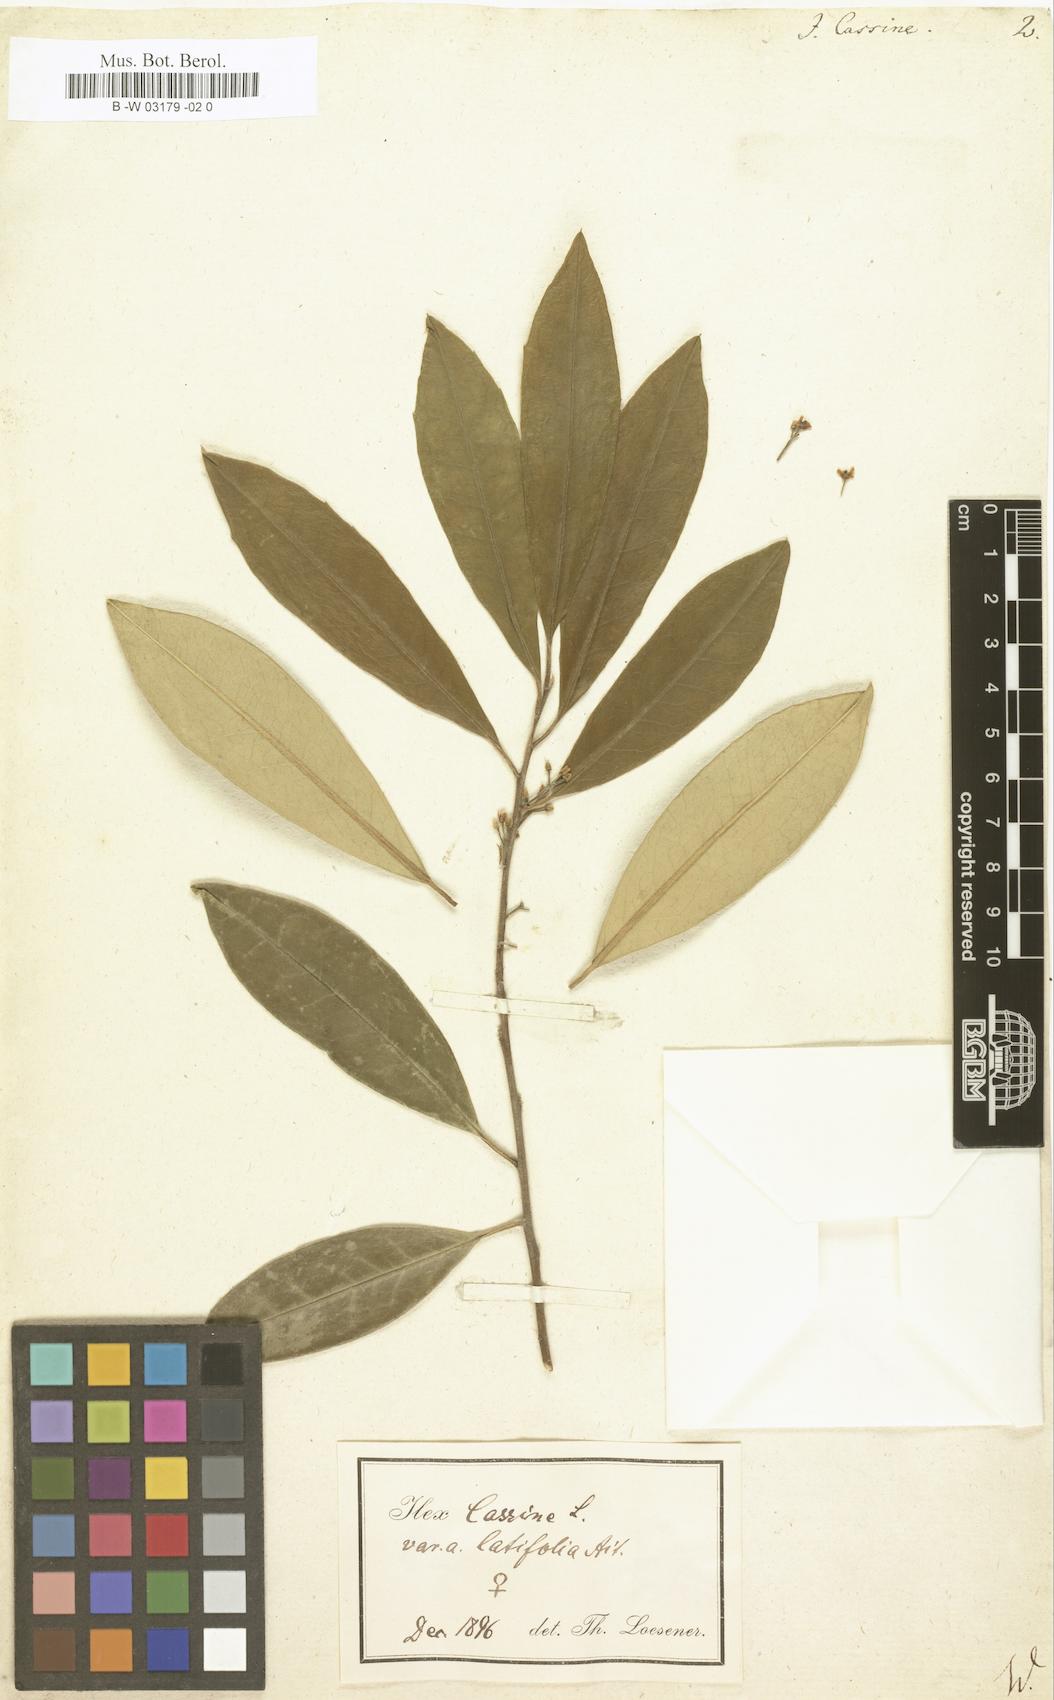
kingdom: Plantae
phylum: Tracheophyta
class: Magnoliopsida
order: Aquifoliales
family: Aquifoliaceae
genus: Ilex
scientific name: Ilex cassine
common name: Dahoon
